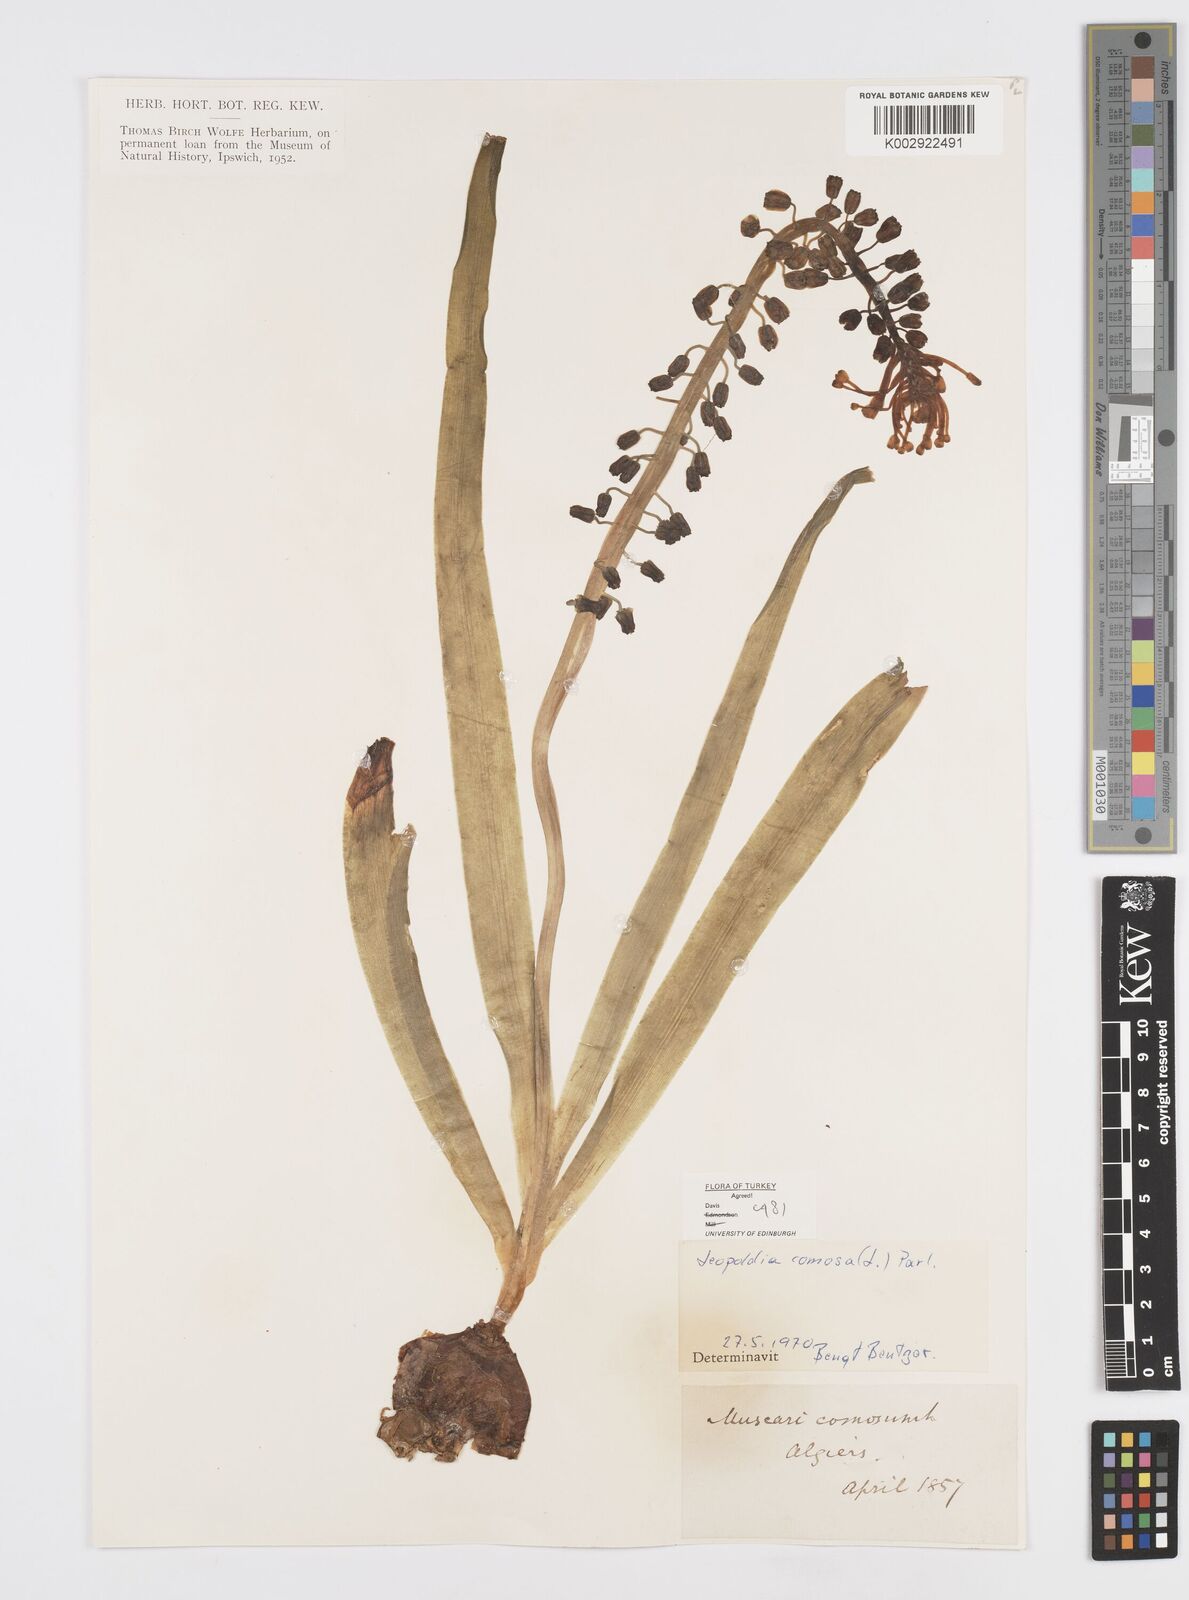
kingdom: Plantae
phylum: Tracheophyta
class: Liliopsida
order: Asparagales
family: Asparagaceae
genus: Muscari
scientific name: Muscari comosum
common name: Tassel hyacinth
